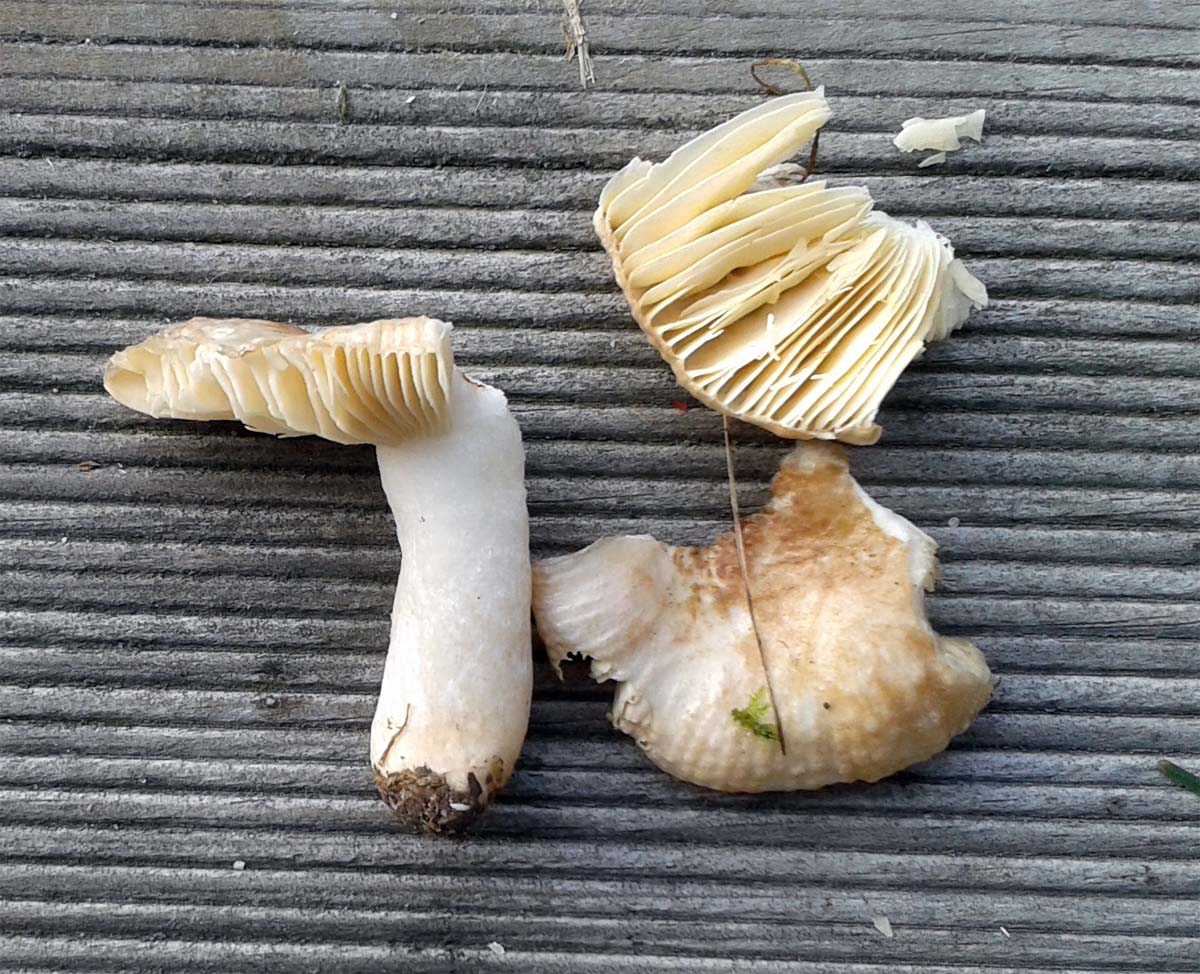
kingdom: Fungi
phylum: Basidiomycota
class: Agaricomycetes
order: Russulales
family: Russulaceae
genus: Russula
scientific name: Russula nauseosa
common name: spinkel skørhat
